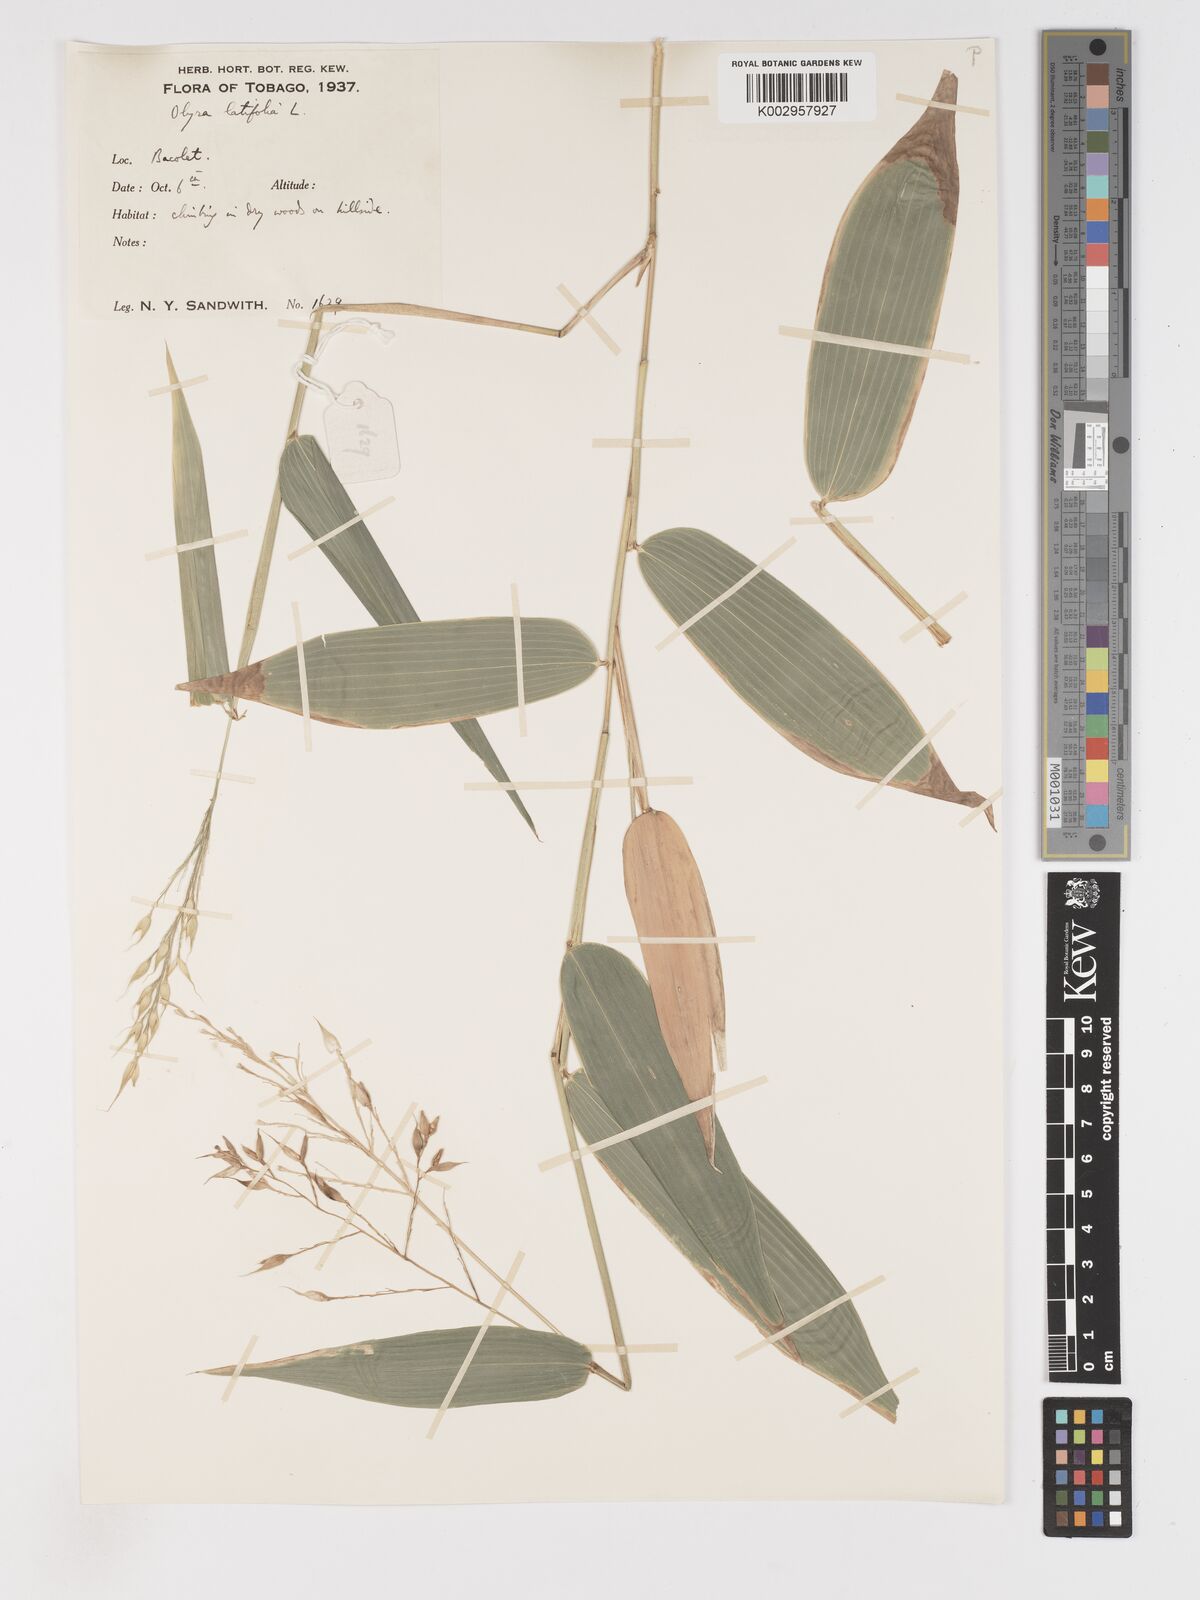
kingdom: Plantae
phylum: Tracheophyta
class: Liliopsida
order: Poales
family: Poaceae
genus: Olyra
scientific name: Olyra latifolia
